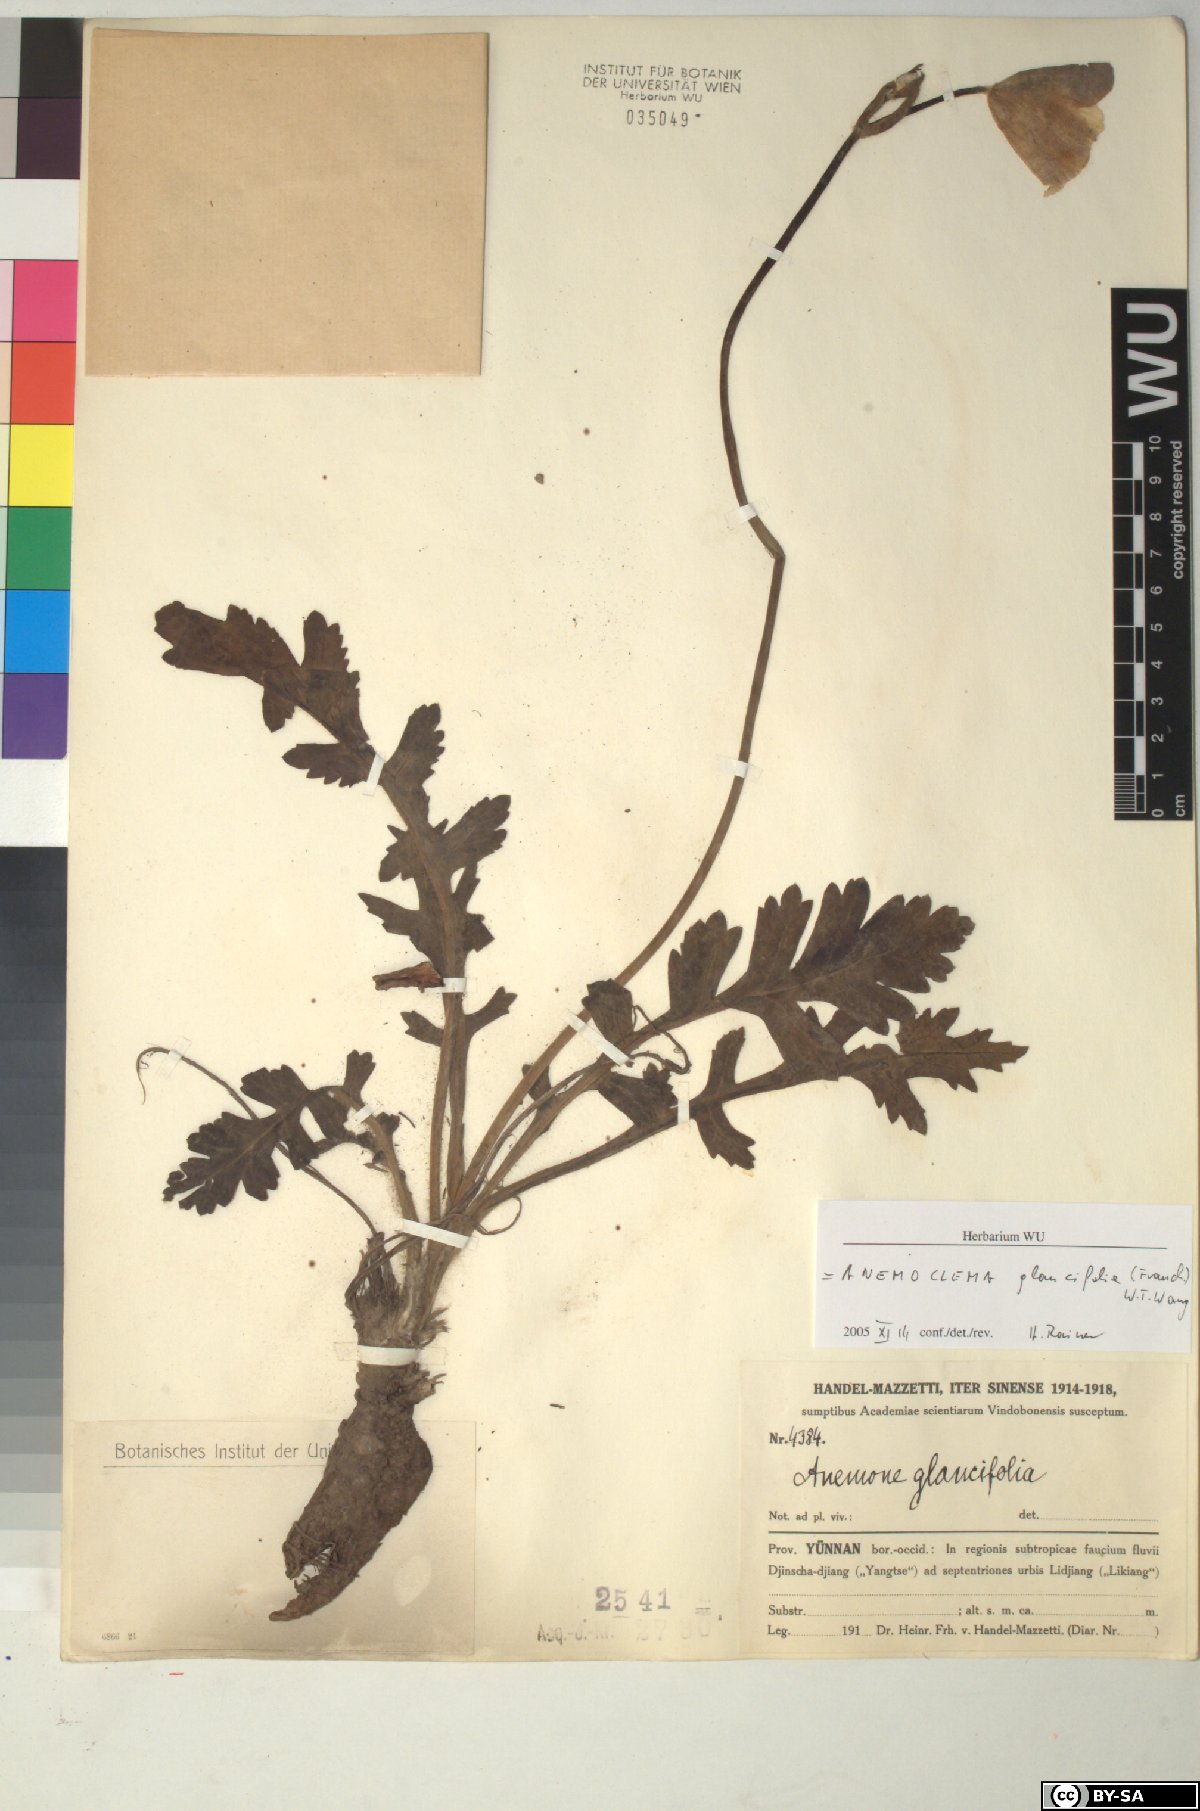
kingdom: Plantae
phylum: Tracheophyta
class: Magnoliopsida
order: Ranunculales
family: Ranunculaceae
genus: Anemone
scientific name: Anemone glaucifolia
